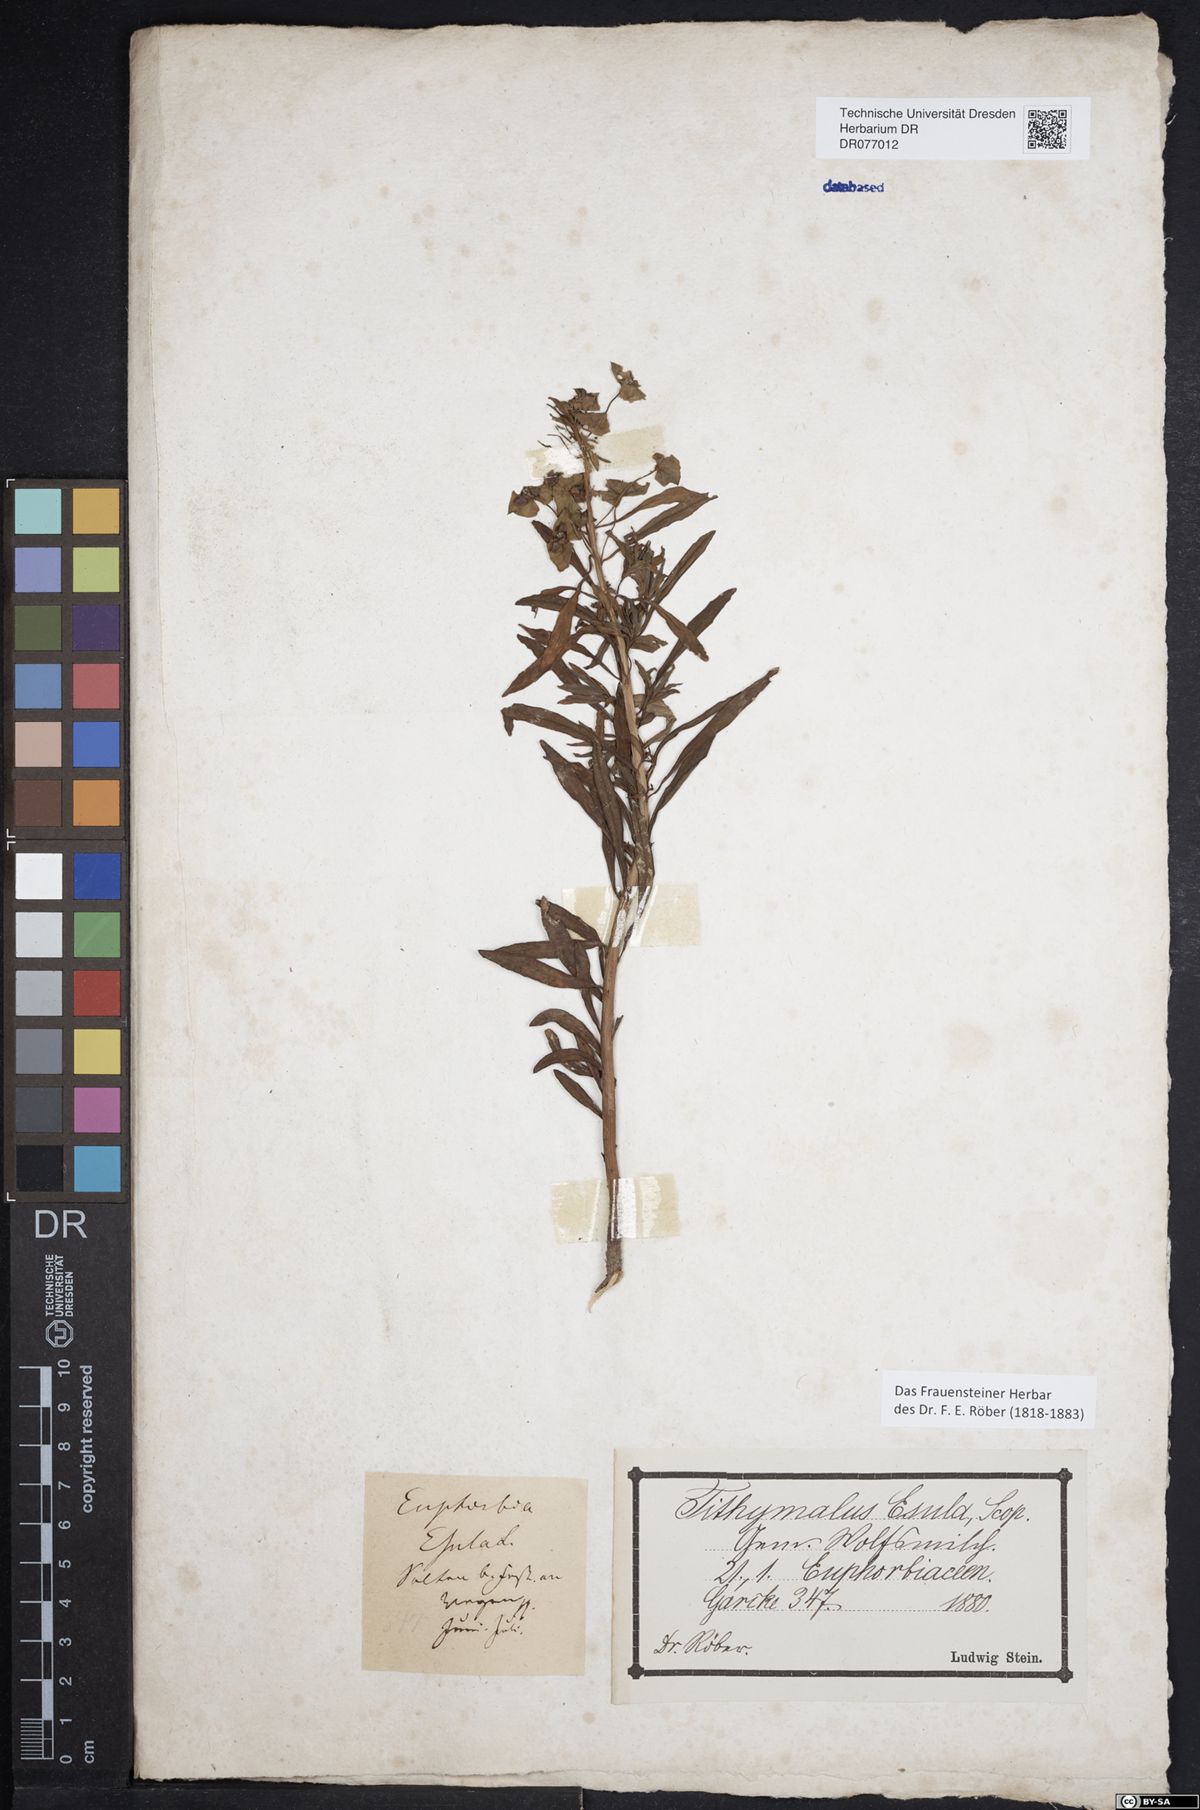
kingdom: Plantae
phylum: Tracheophyta
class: Magnoliopsida
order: Malpighiales
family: Euphorbiaceae
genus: Euphorbia
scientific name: Euphorbia esula
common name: Leafy spurge
